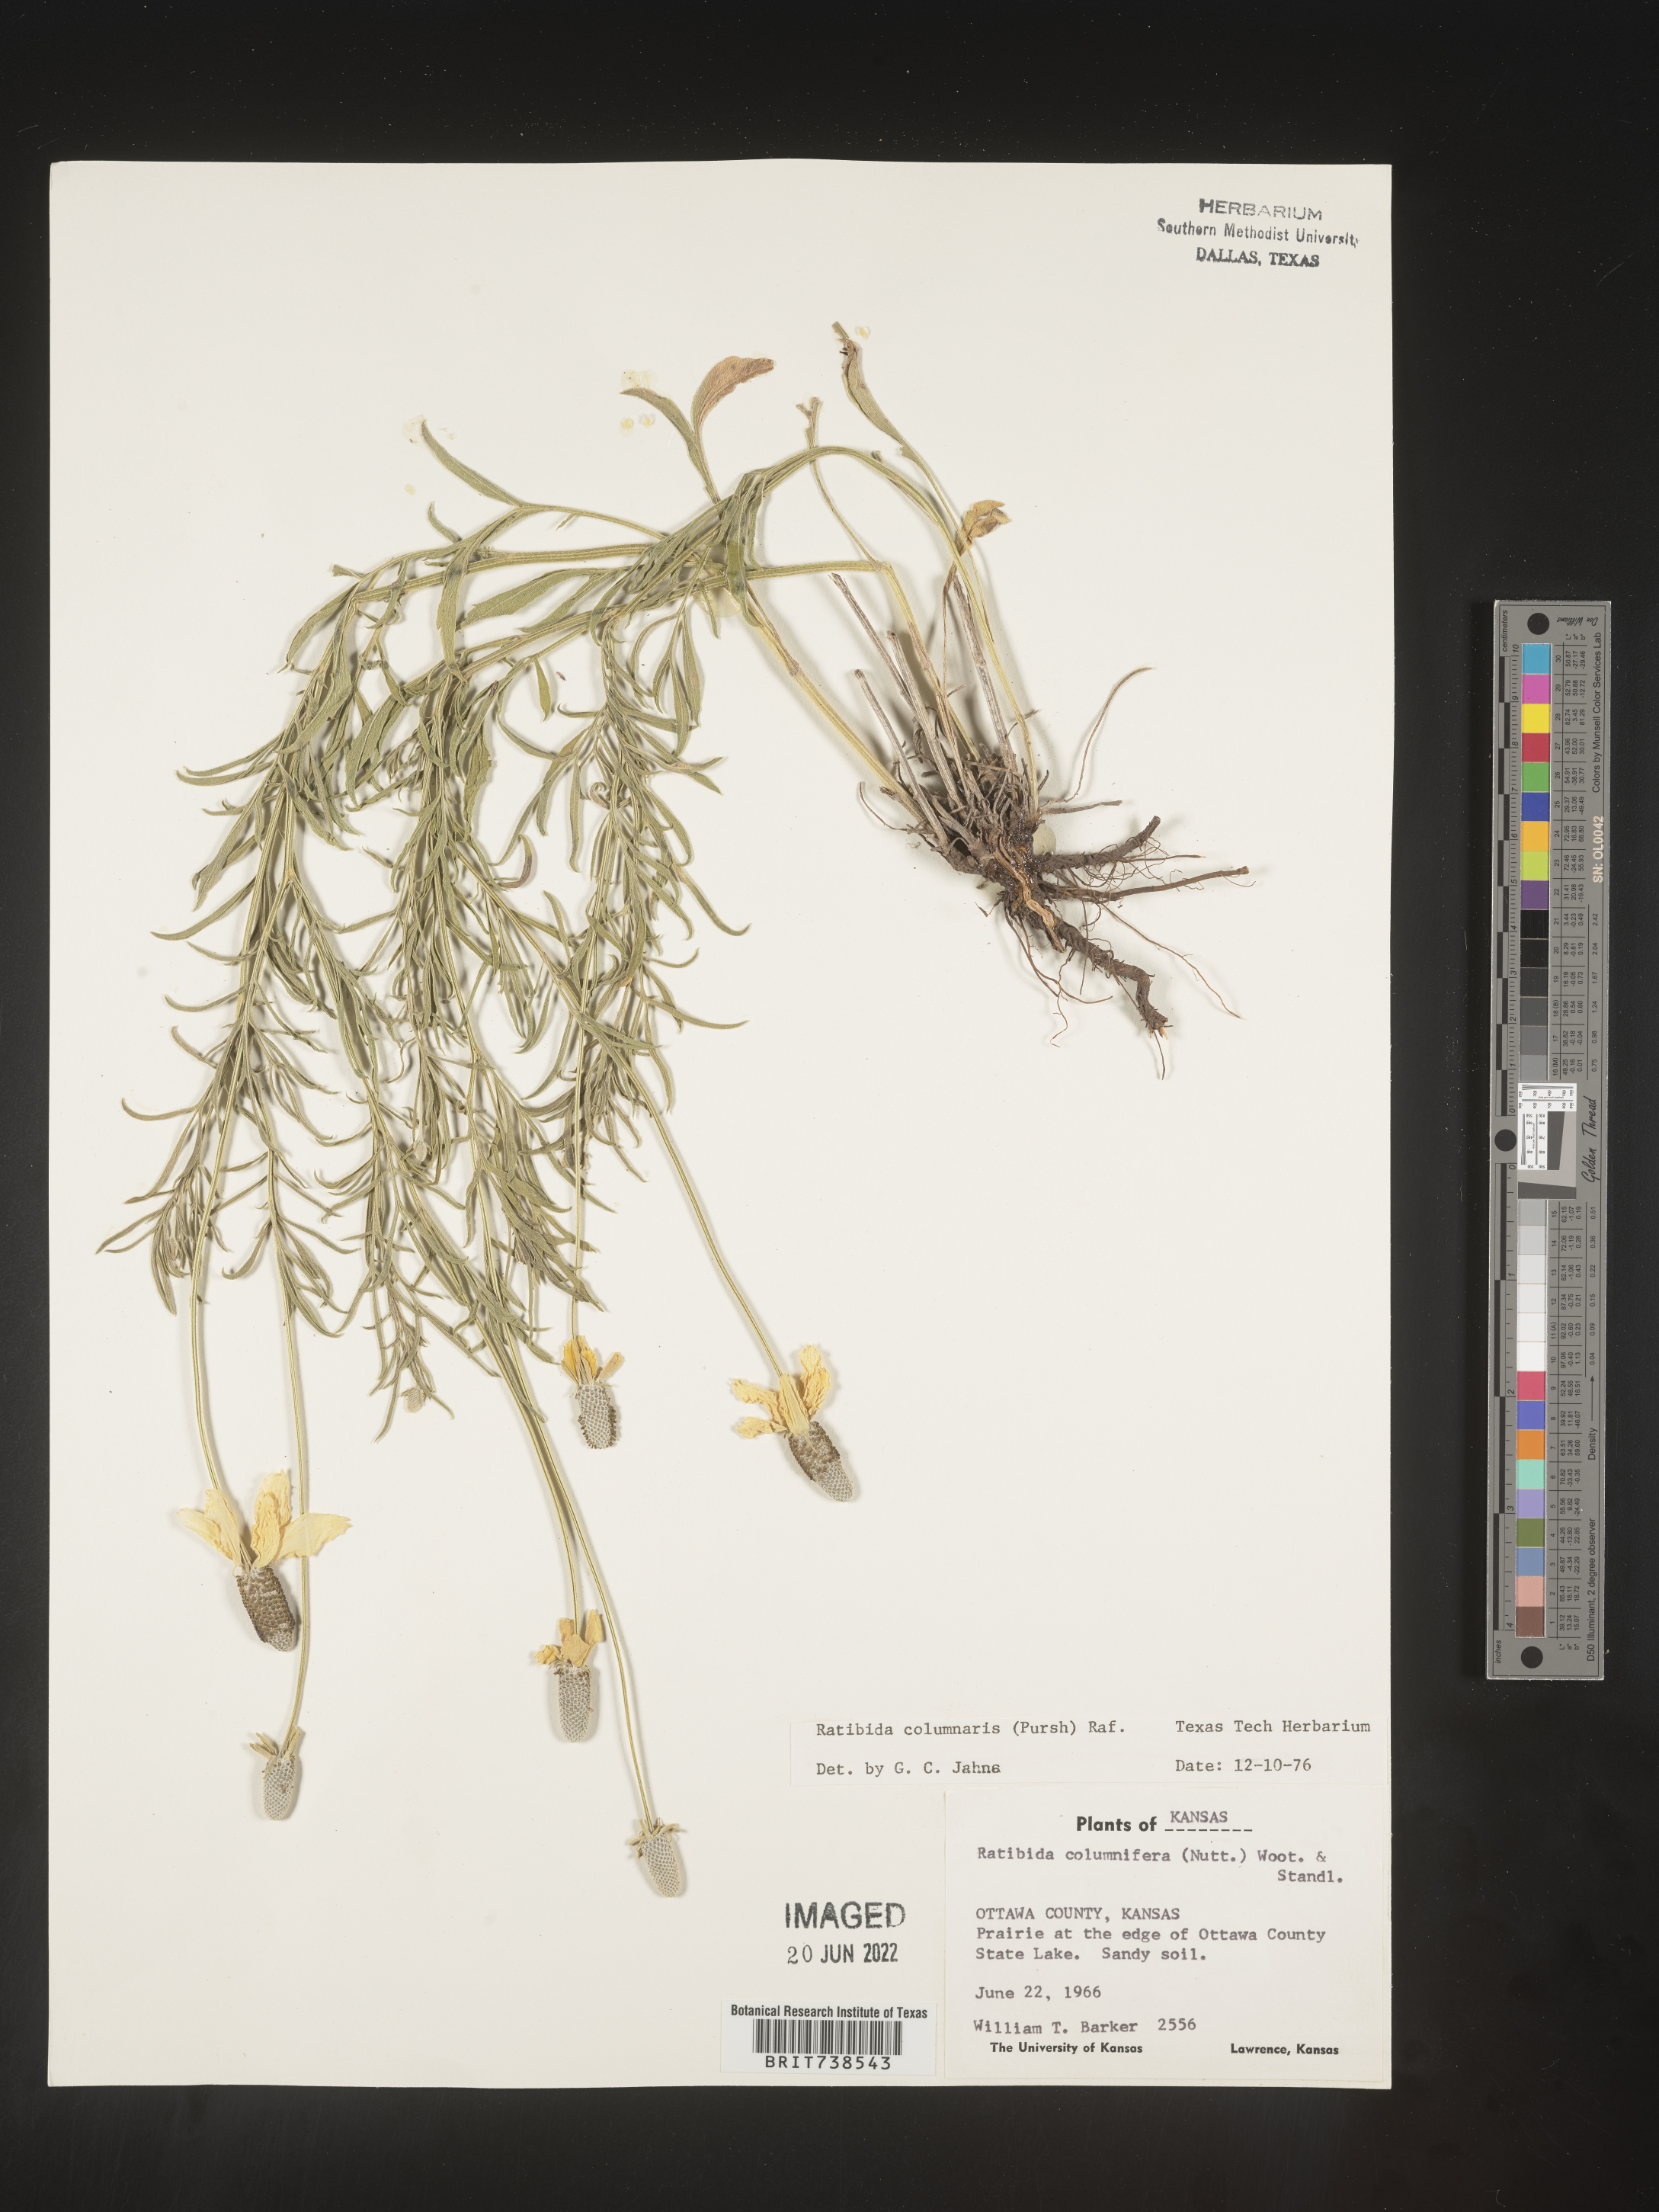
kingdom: Plantae
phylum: Tracheophyta
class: Magnoliopsida
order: Asterales
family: Asteraceae
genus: Ratibida
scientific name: Ratibida columnifera
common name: Prairie coneflower
